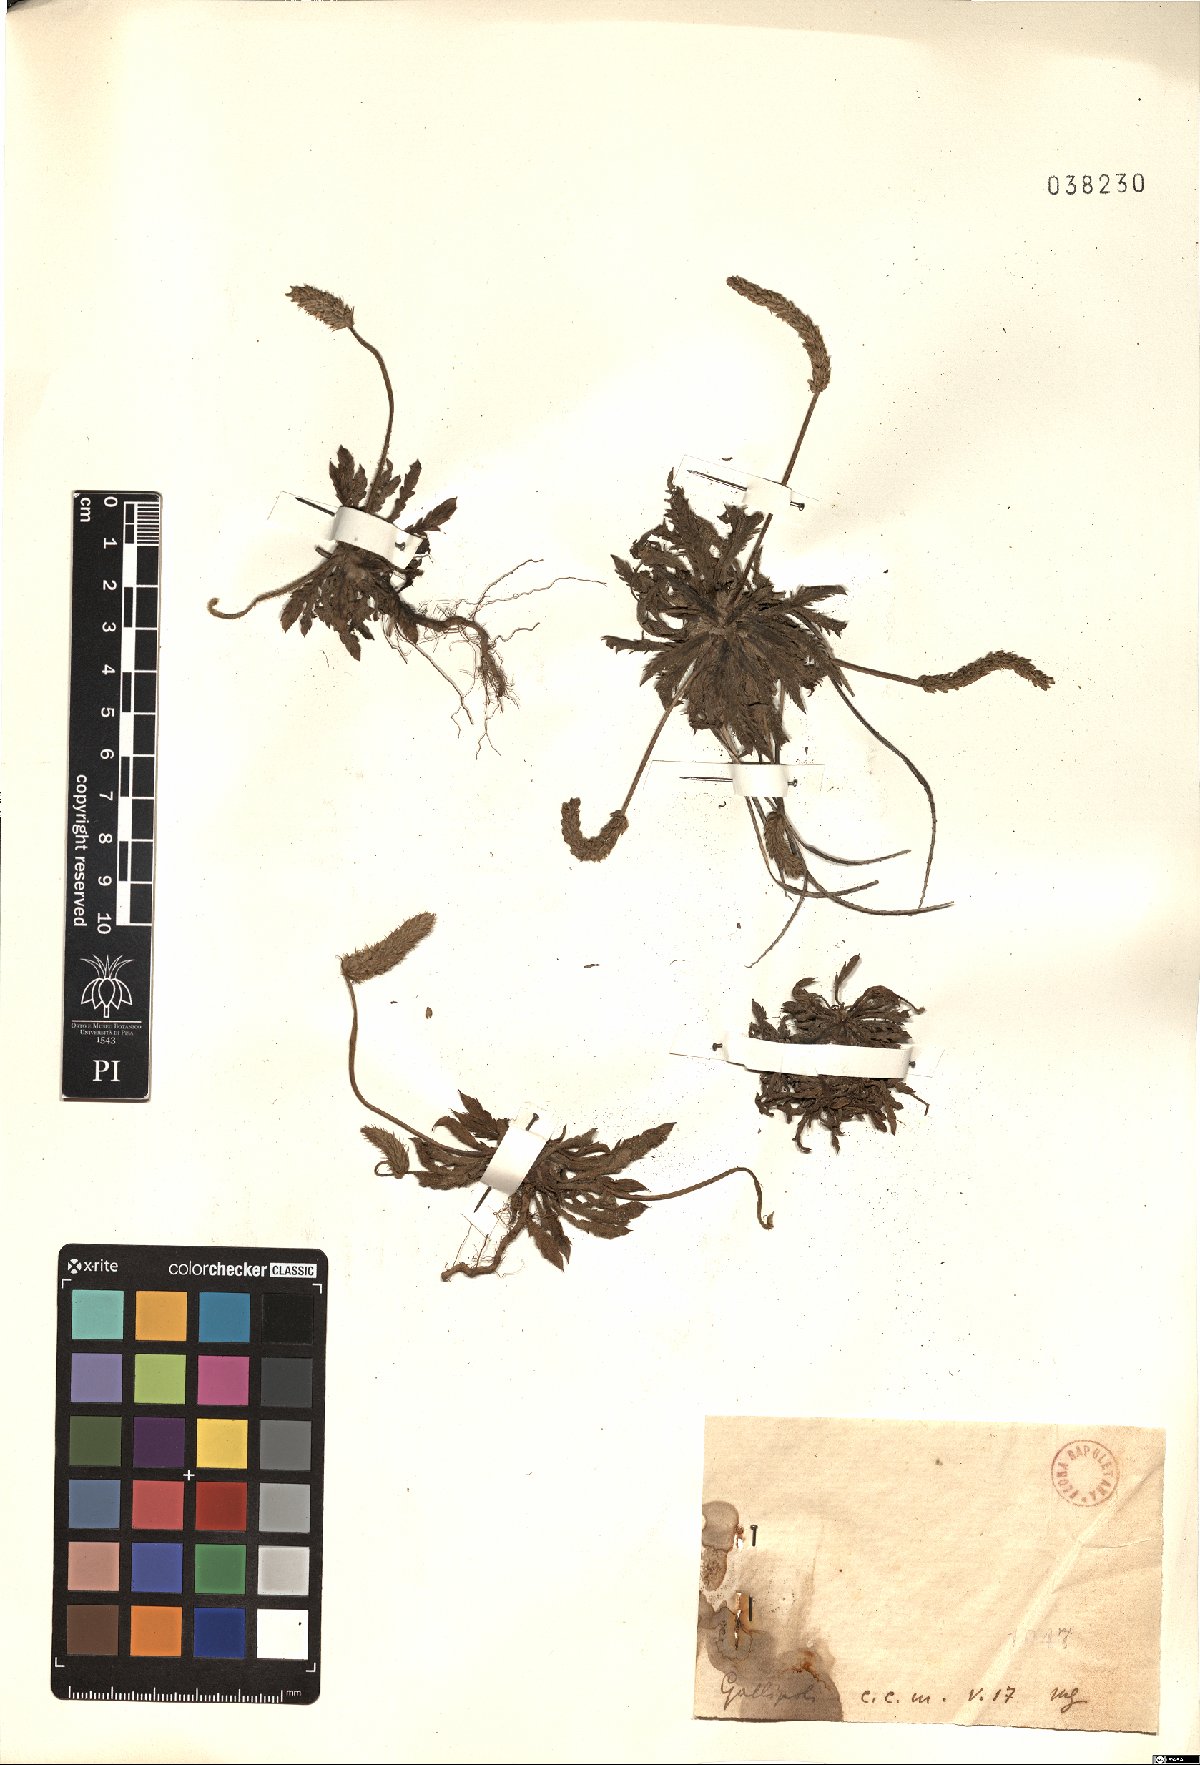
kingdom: Plantae
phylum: Tracheophyta
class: Magnoliopsida
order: Lamiales
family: Plantaginaceae
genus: Plantago
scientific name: Plantago
